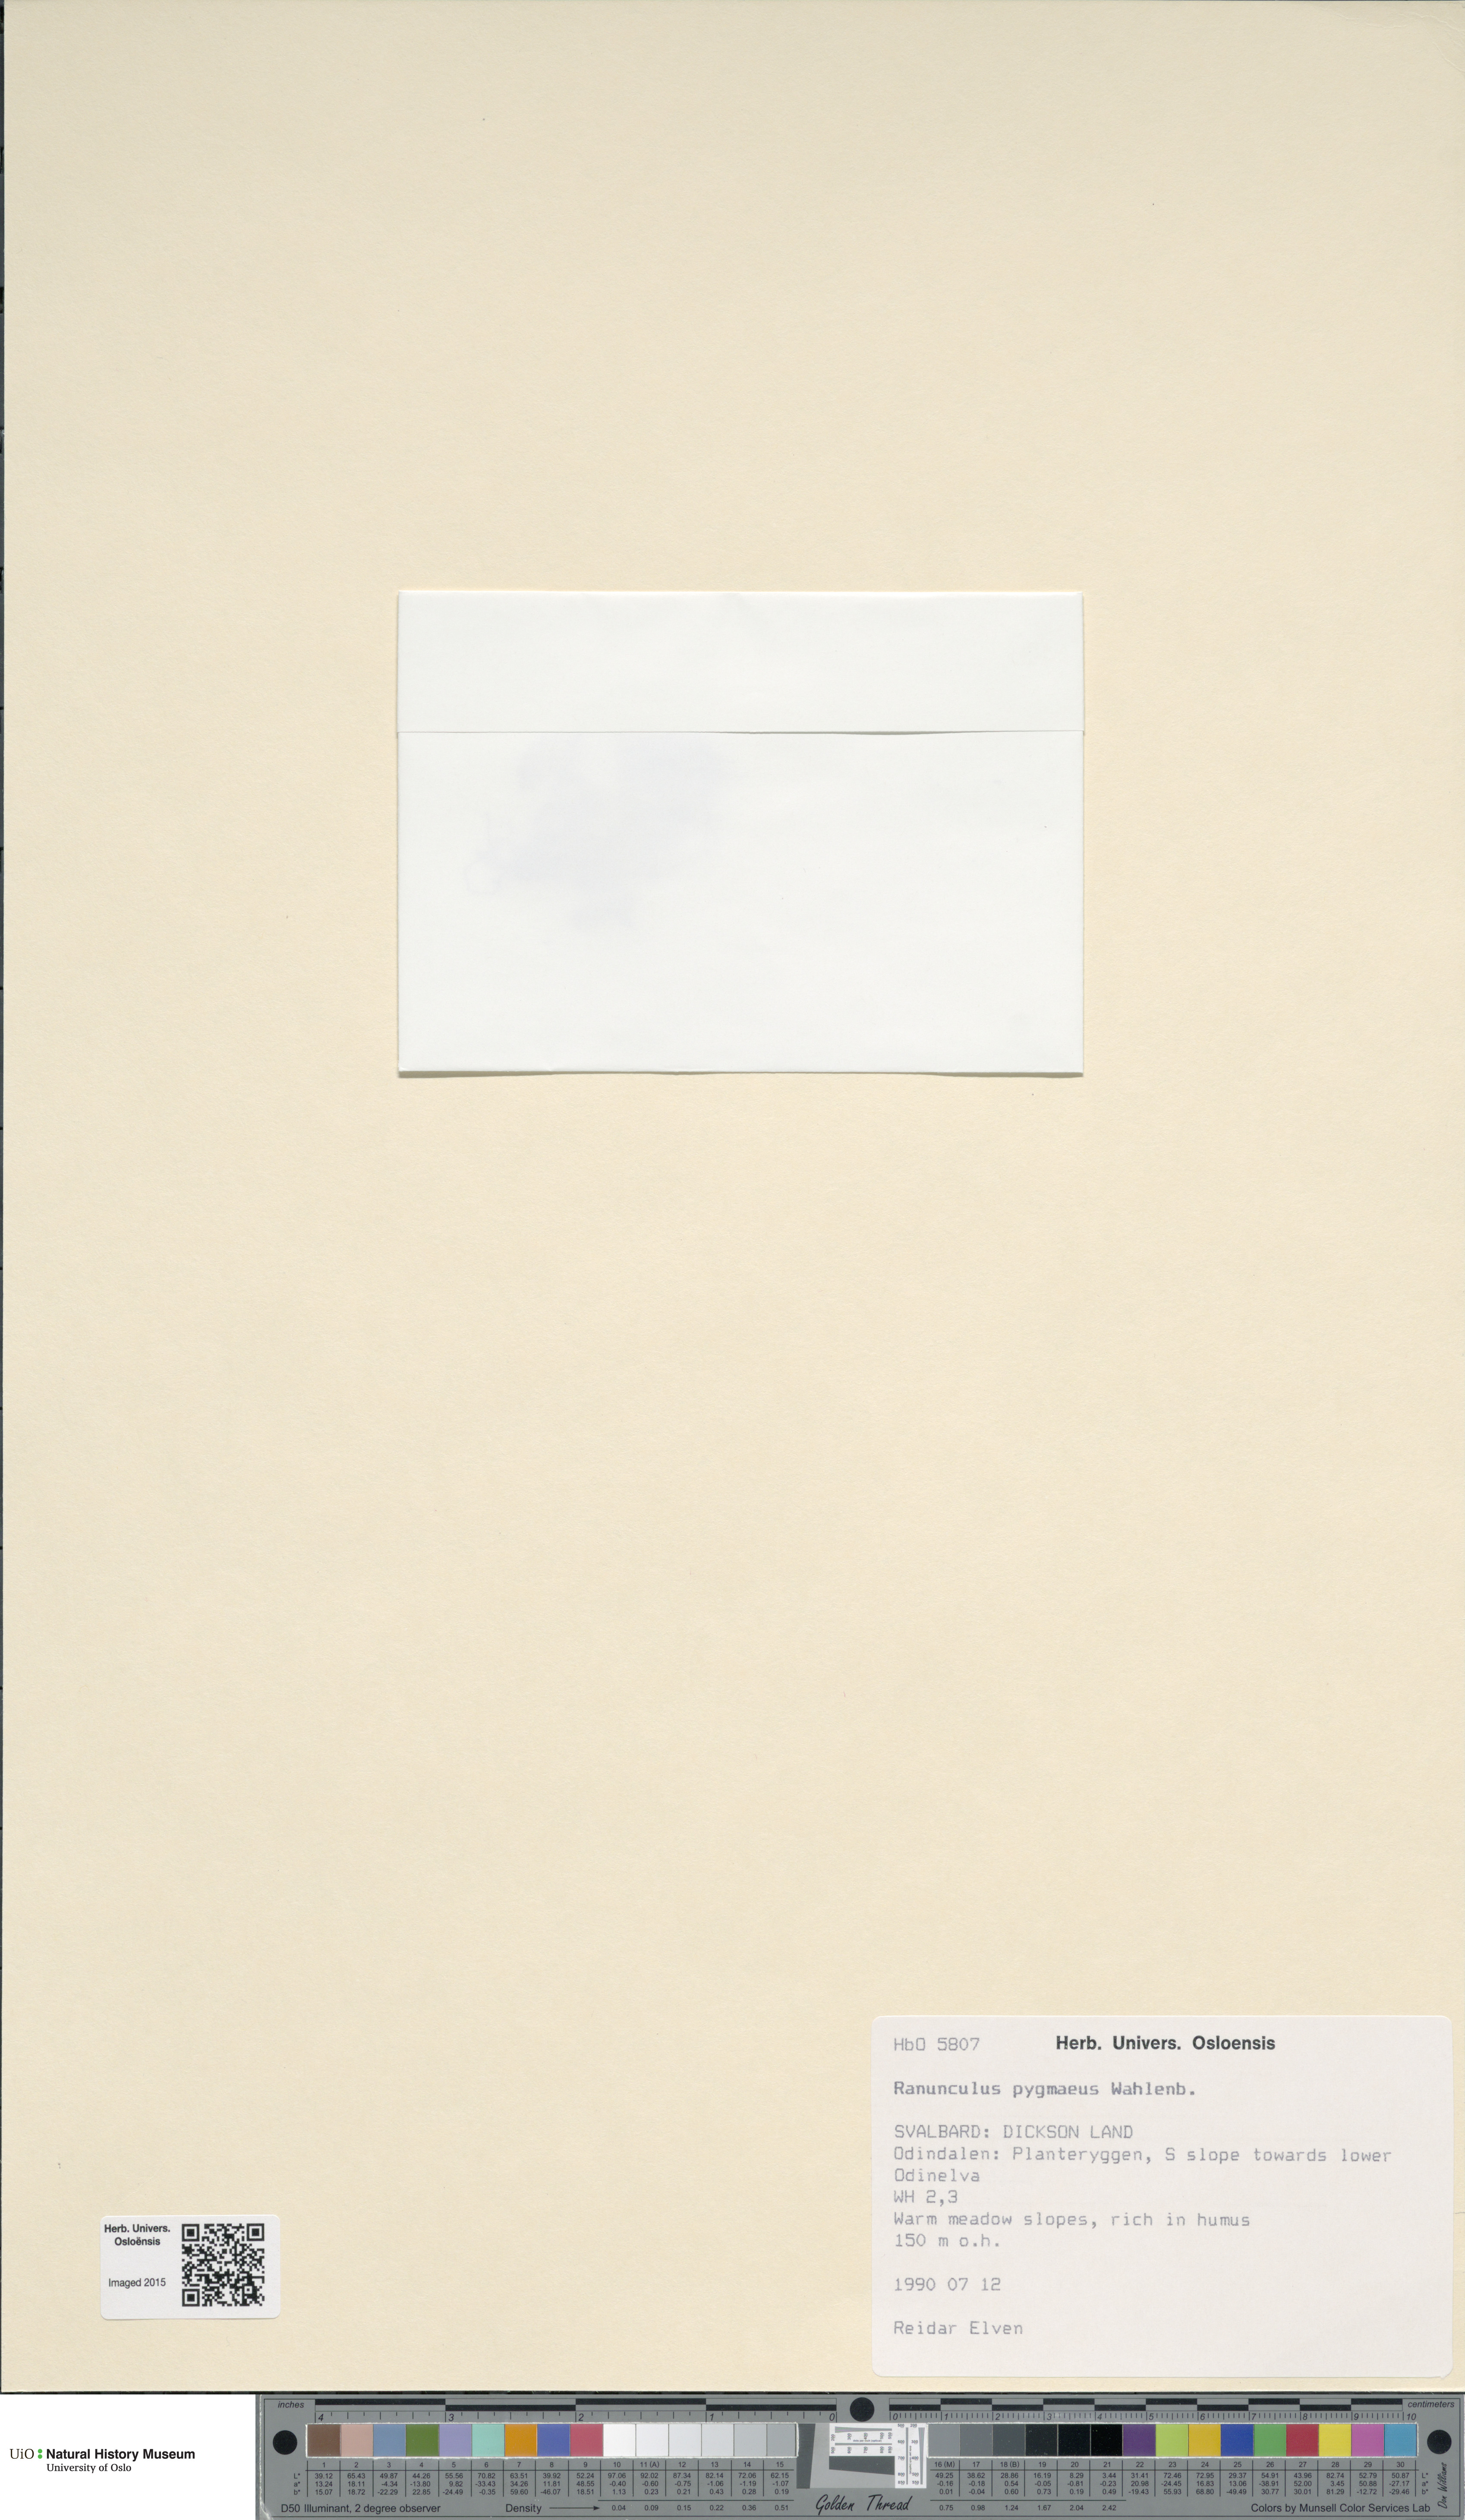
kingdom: Plantae
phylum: Tracheophyta
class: Magnoliopsida
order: Ranunculales
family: Ranunculaceae
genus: Ranunculus
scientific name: Ranunculus pygmaeus
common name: Dwarf buttercup
